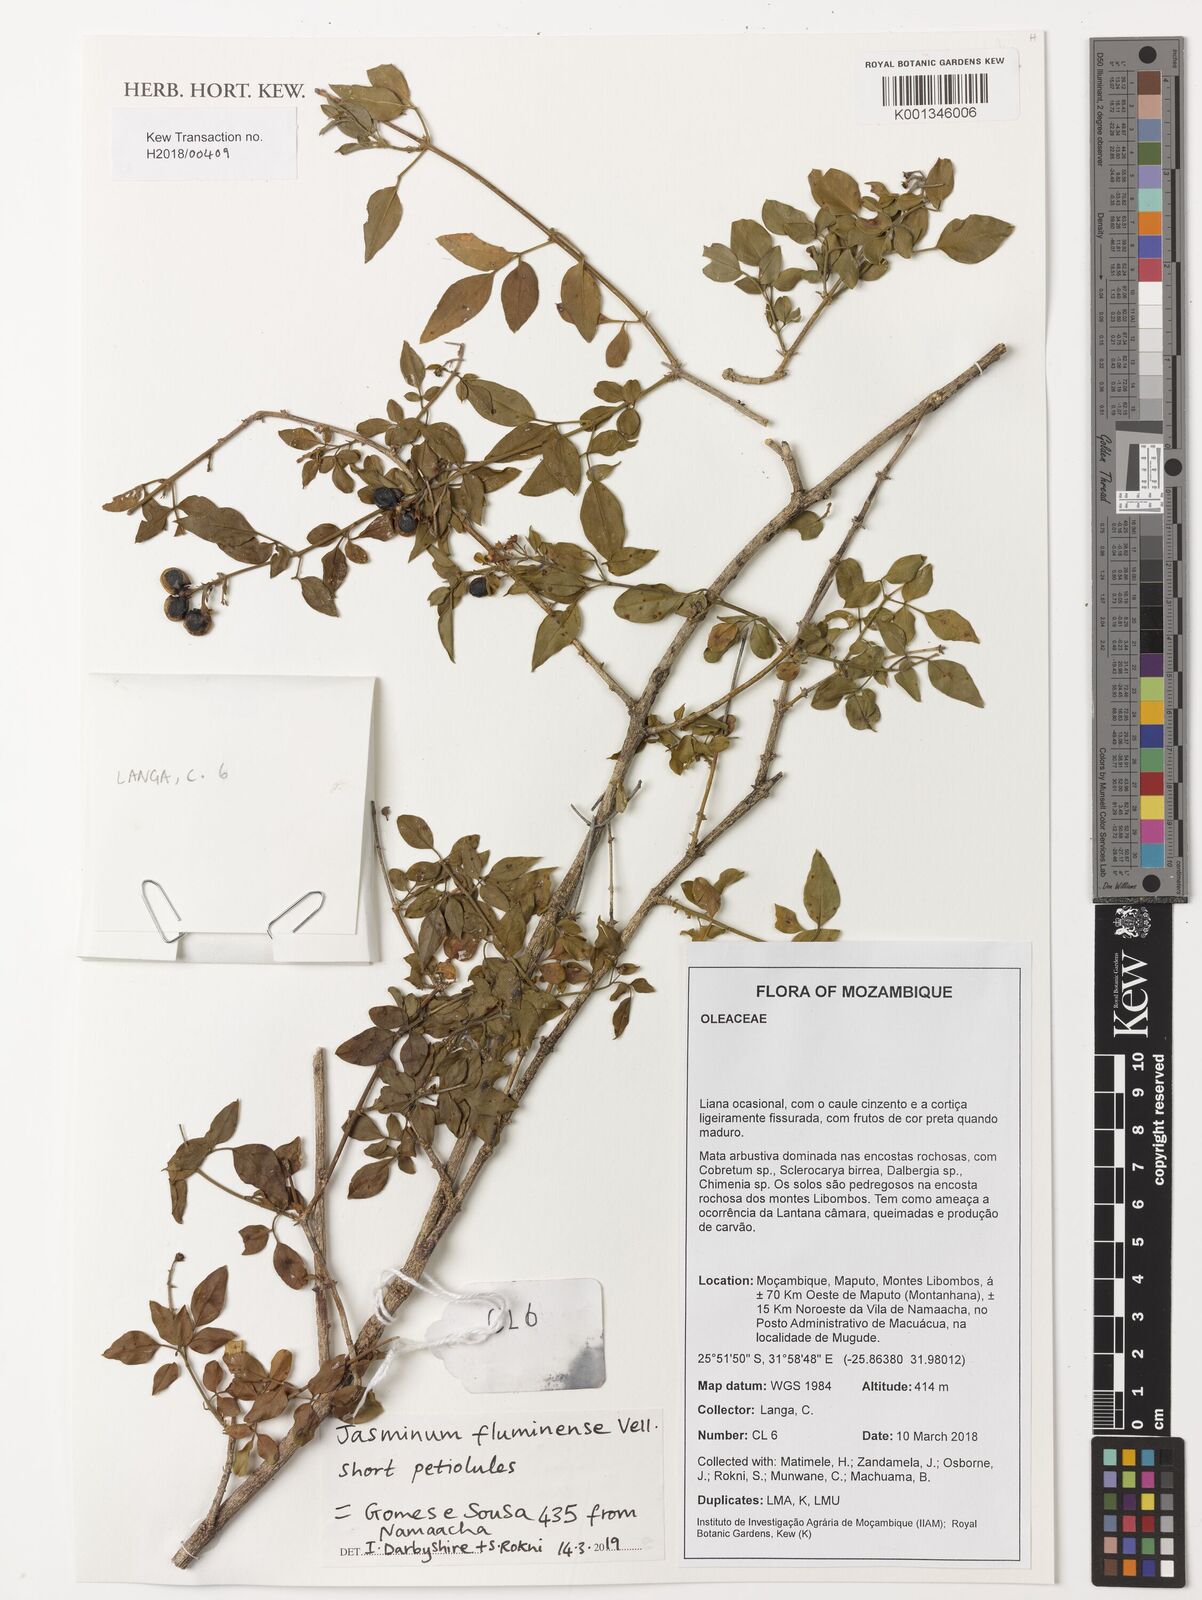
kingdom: Plantae
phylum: Tracheophyta
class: Magnoliopsida
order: Lamiales
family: Oleaceae
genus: Jasminum
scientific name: Jasminum fluminense
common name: Brazilian jasmine
